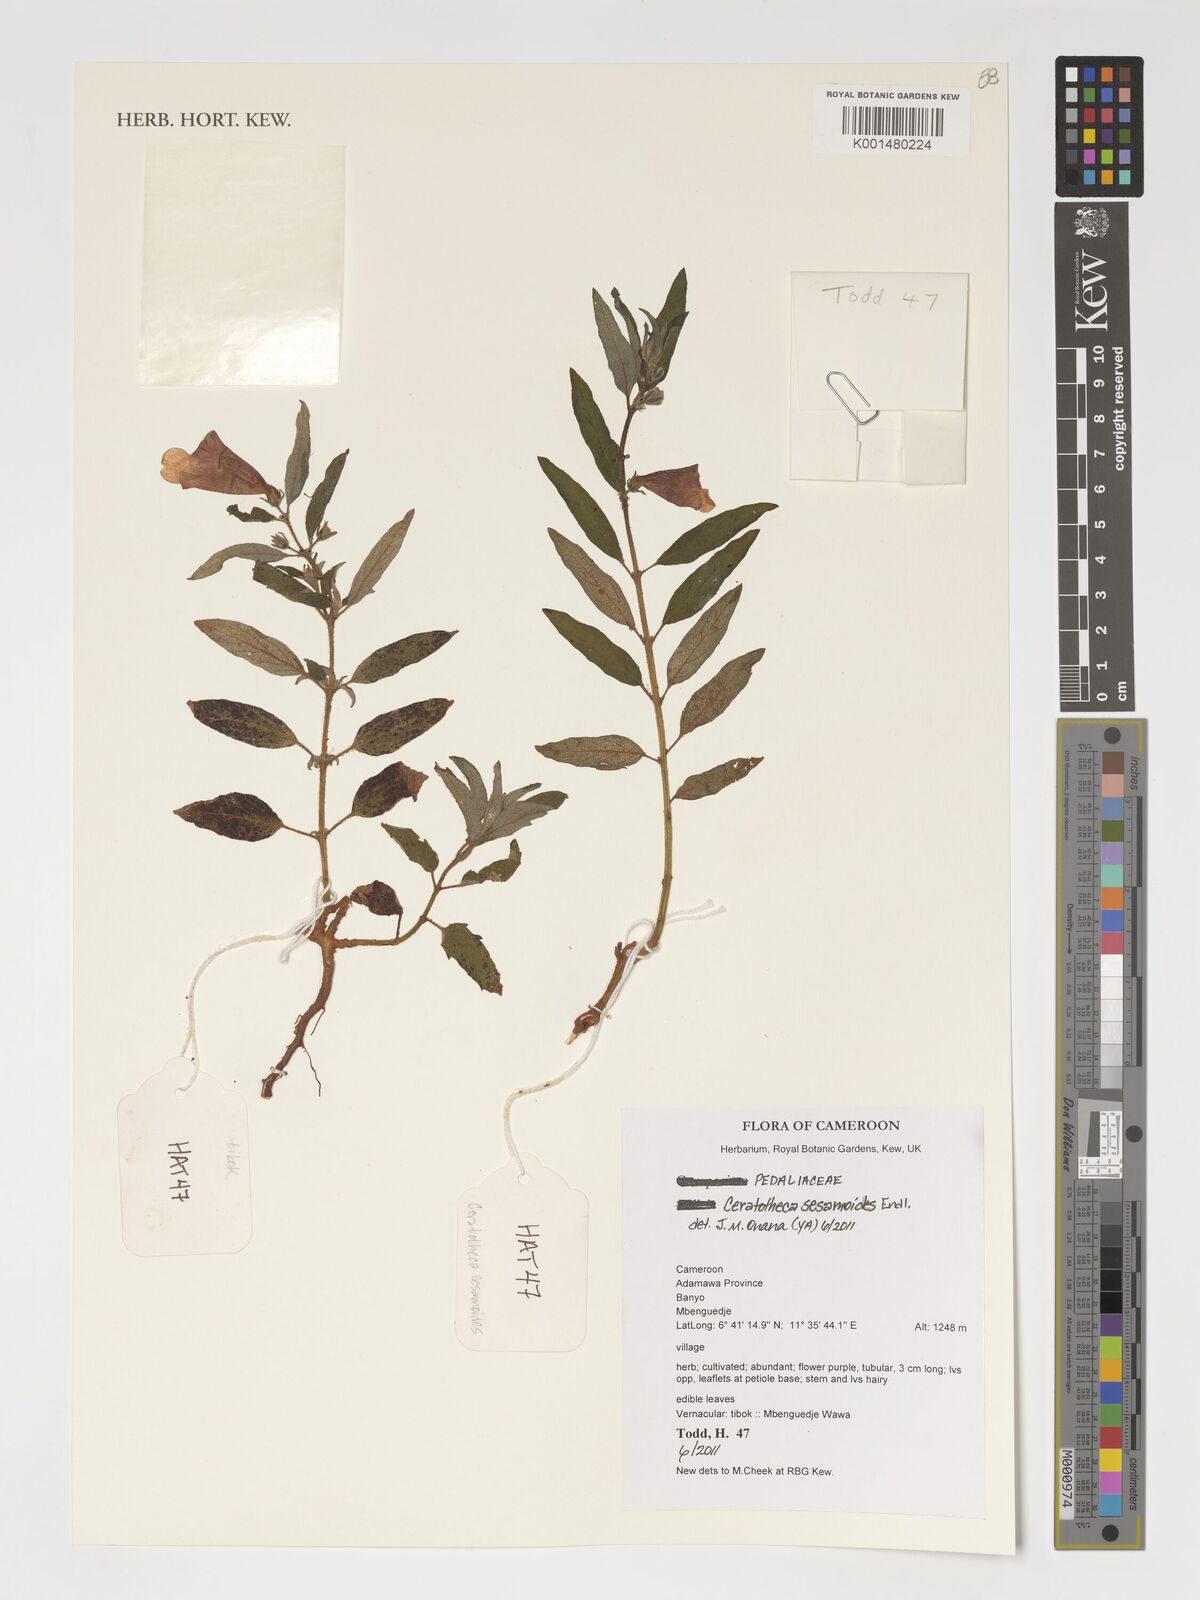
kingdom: Plantae
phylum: Tracheophyta
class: Magnoliopsida
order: Lamiales
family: Pedaliaceae
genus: Sesamum
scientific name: Sesamum sesamoides
